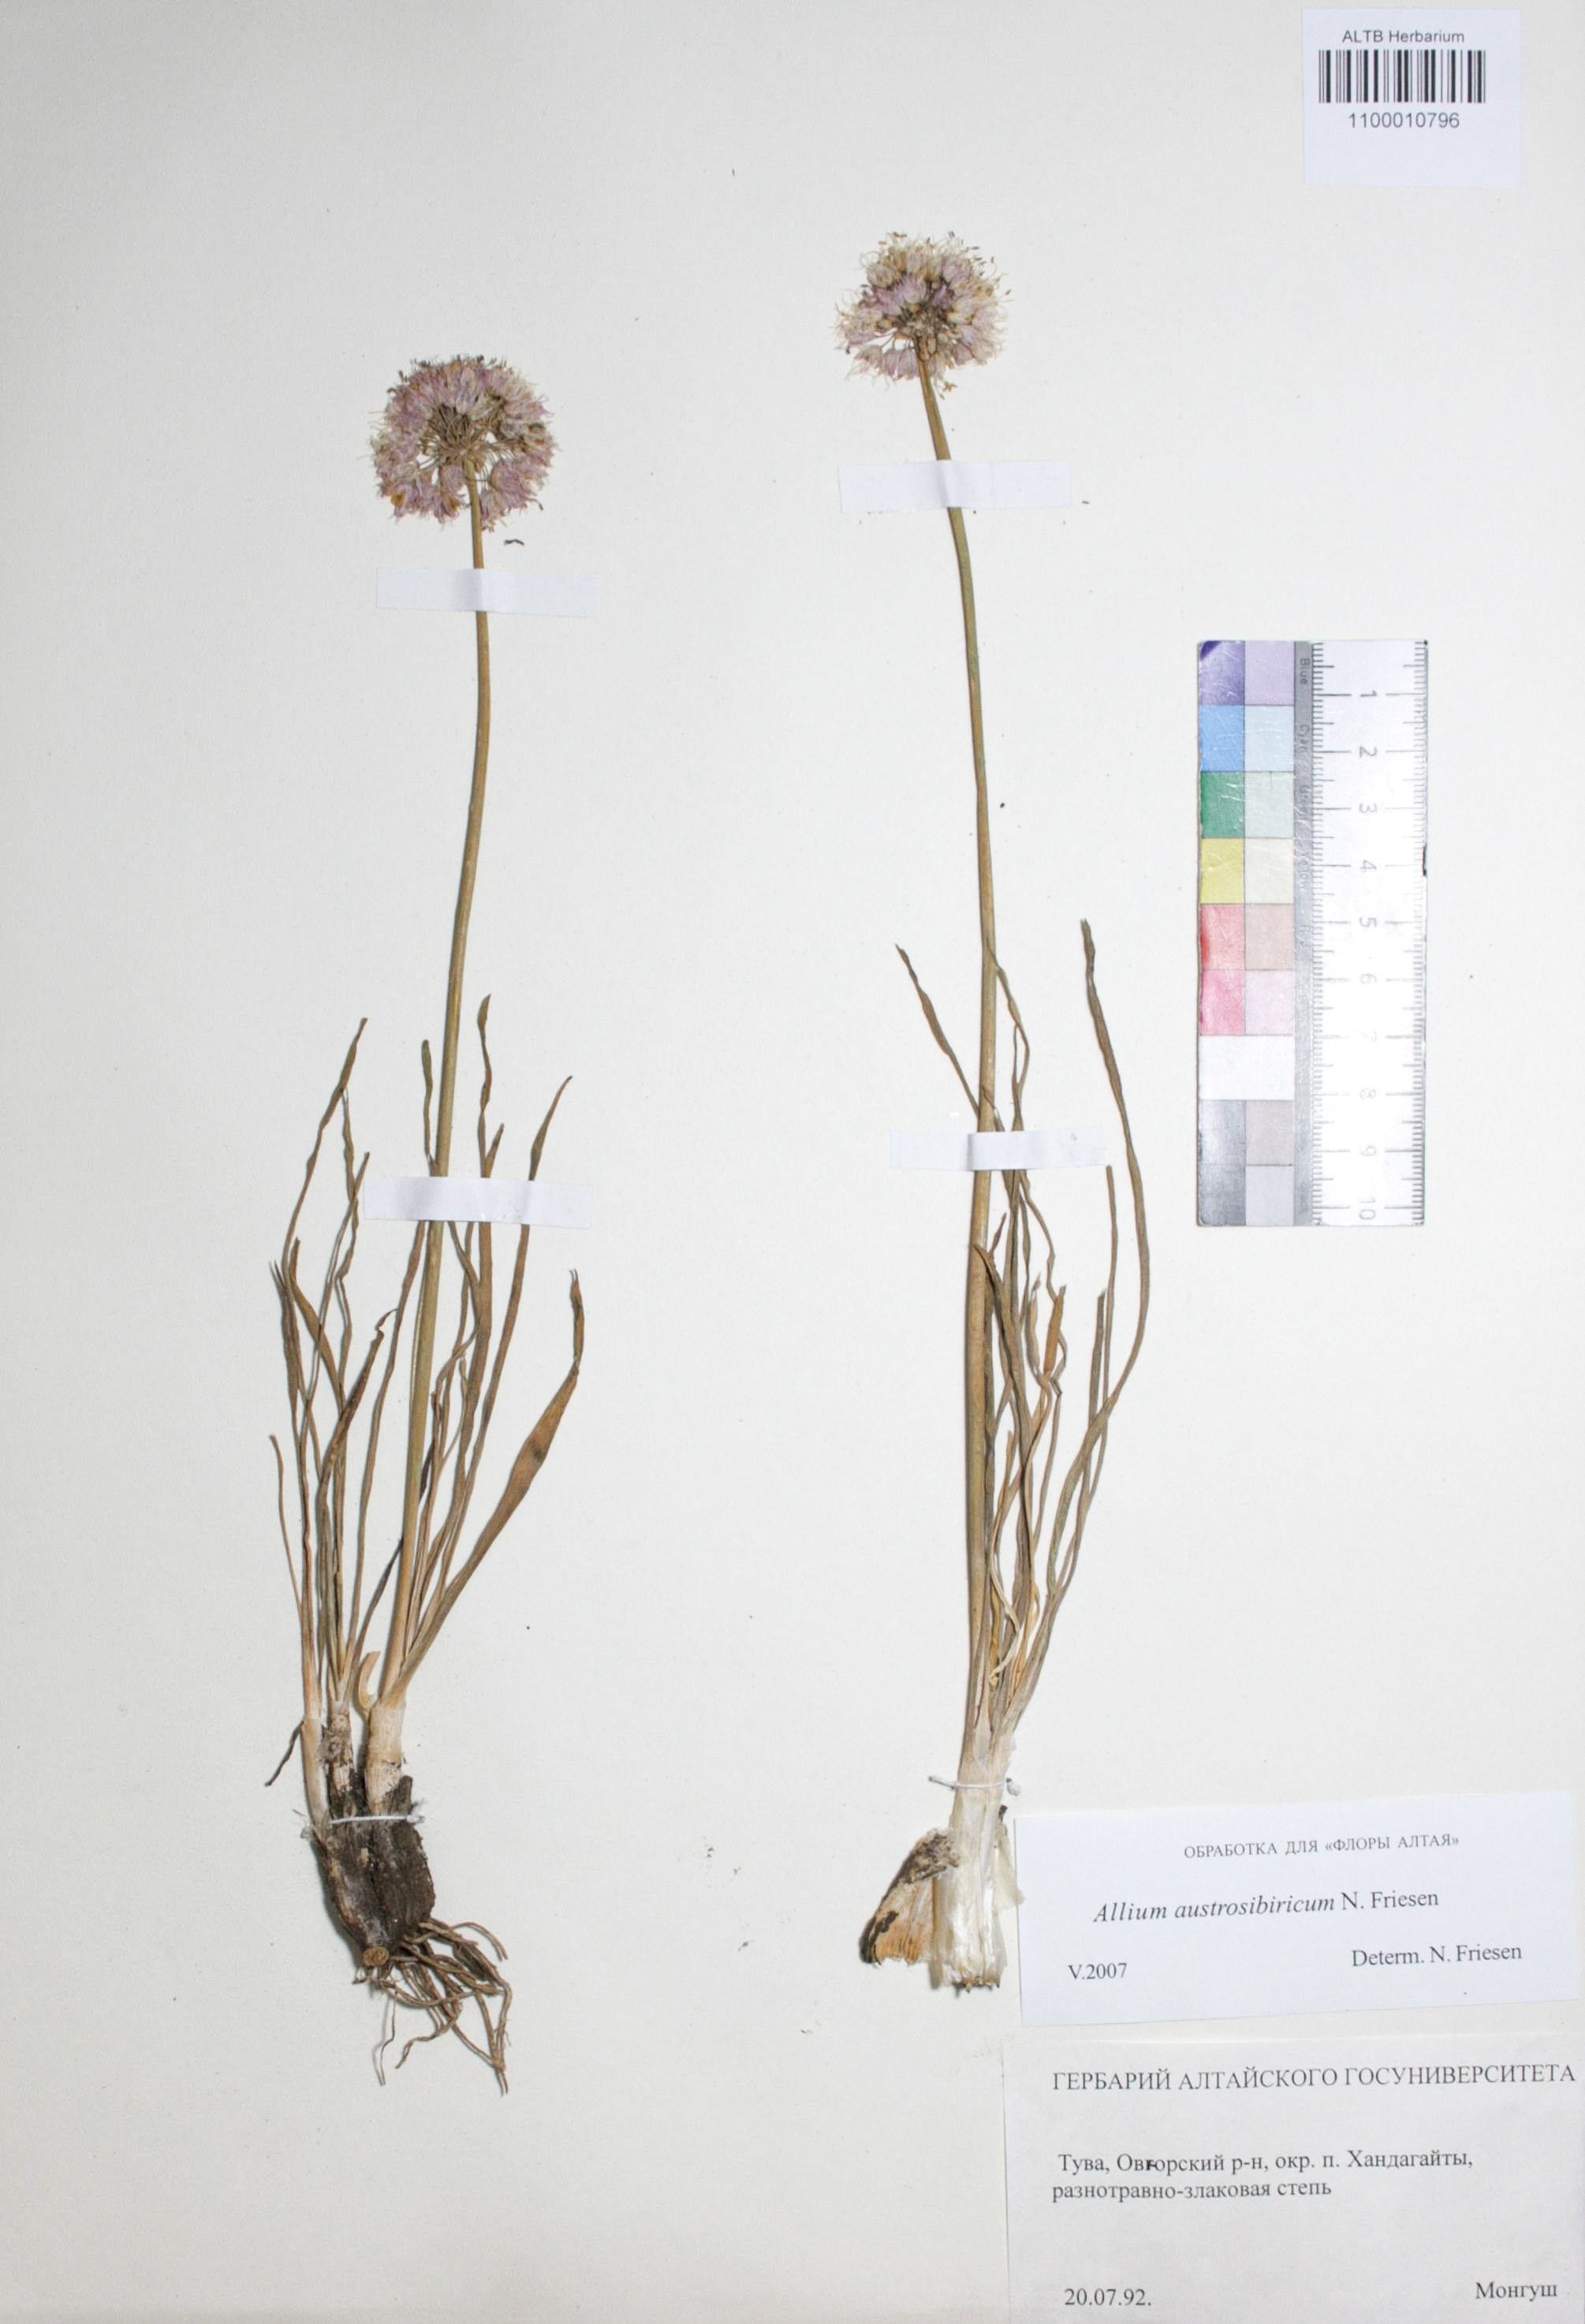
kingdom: Plantae
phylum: Tracheophyta
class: Liliopsida
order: Asparagales
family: Amaryllidaceae
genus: Allium
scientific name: Allium austrosibiricum
